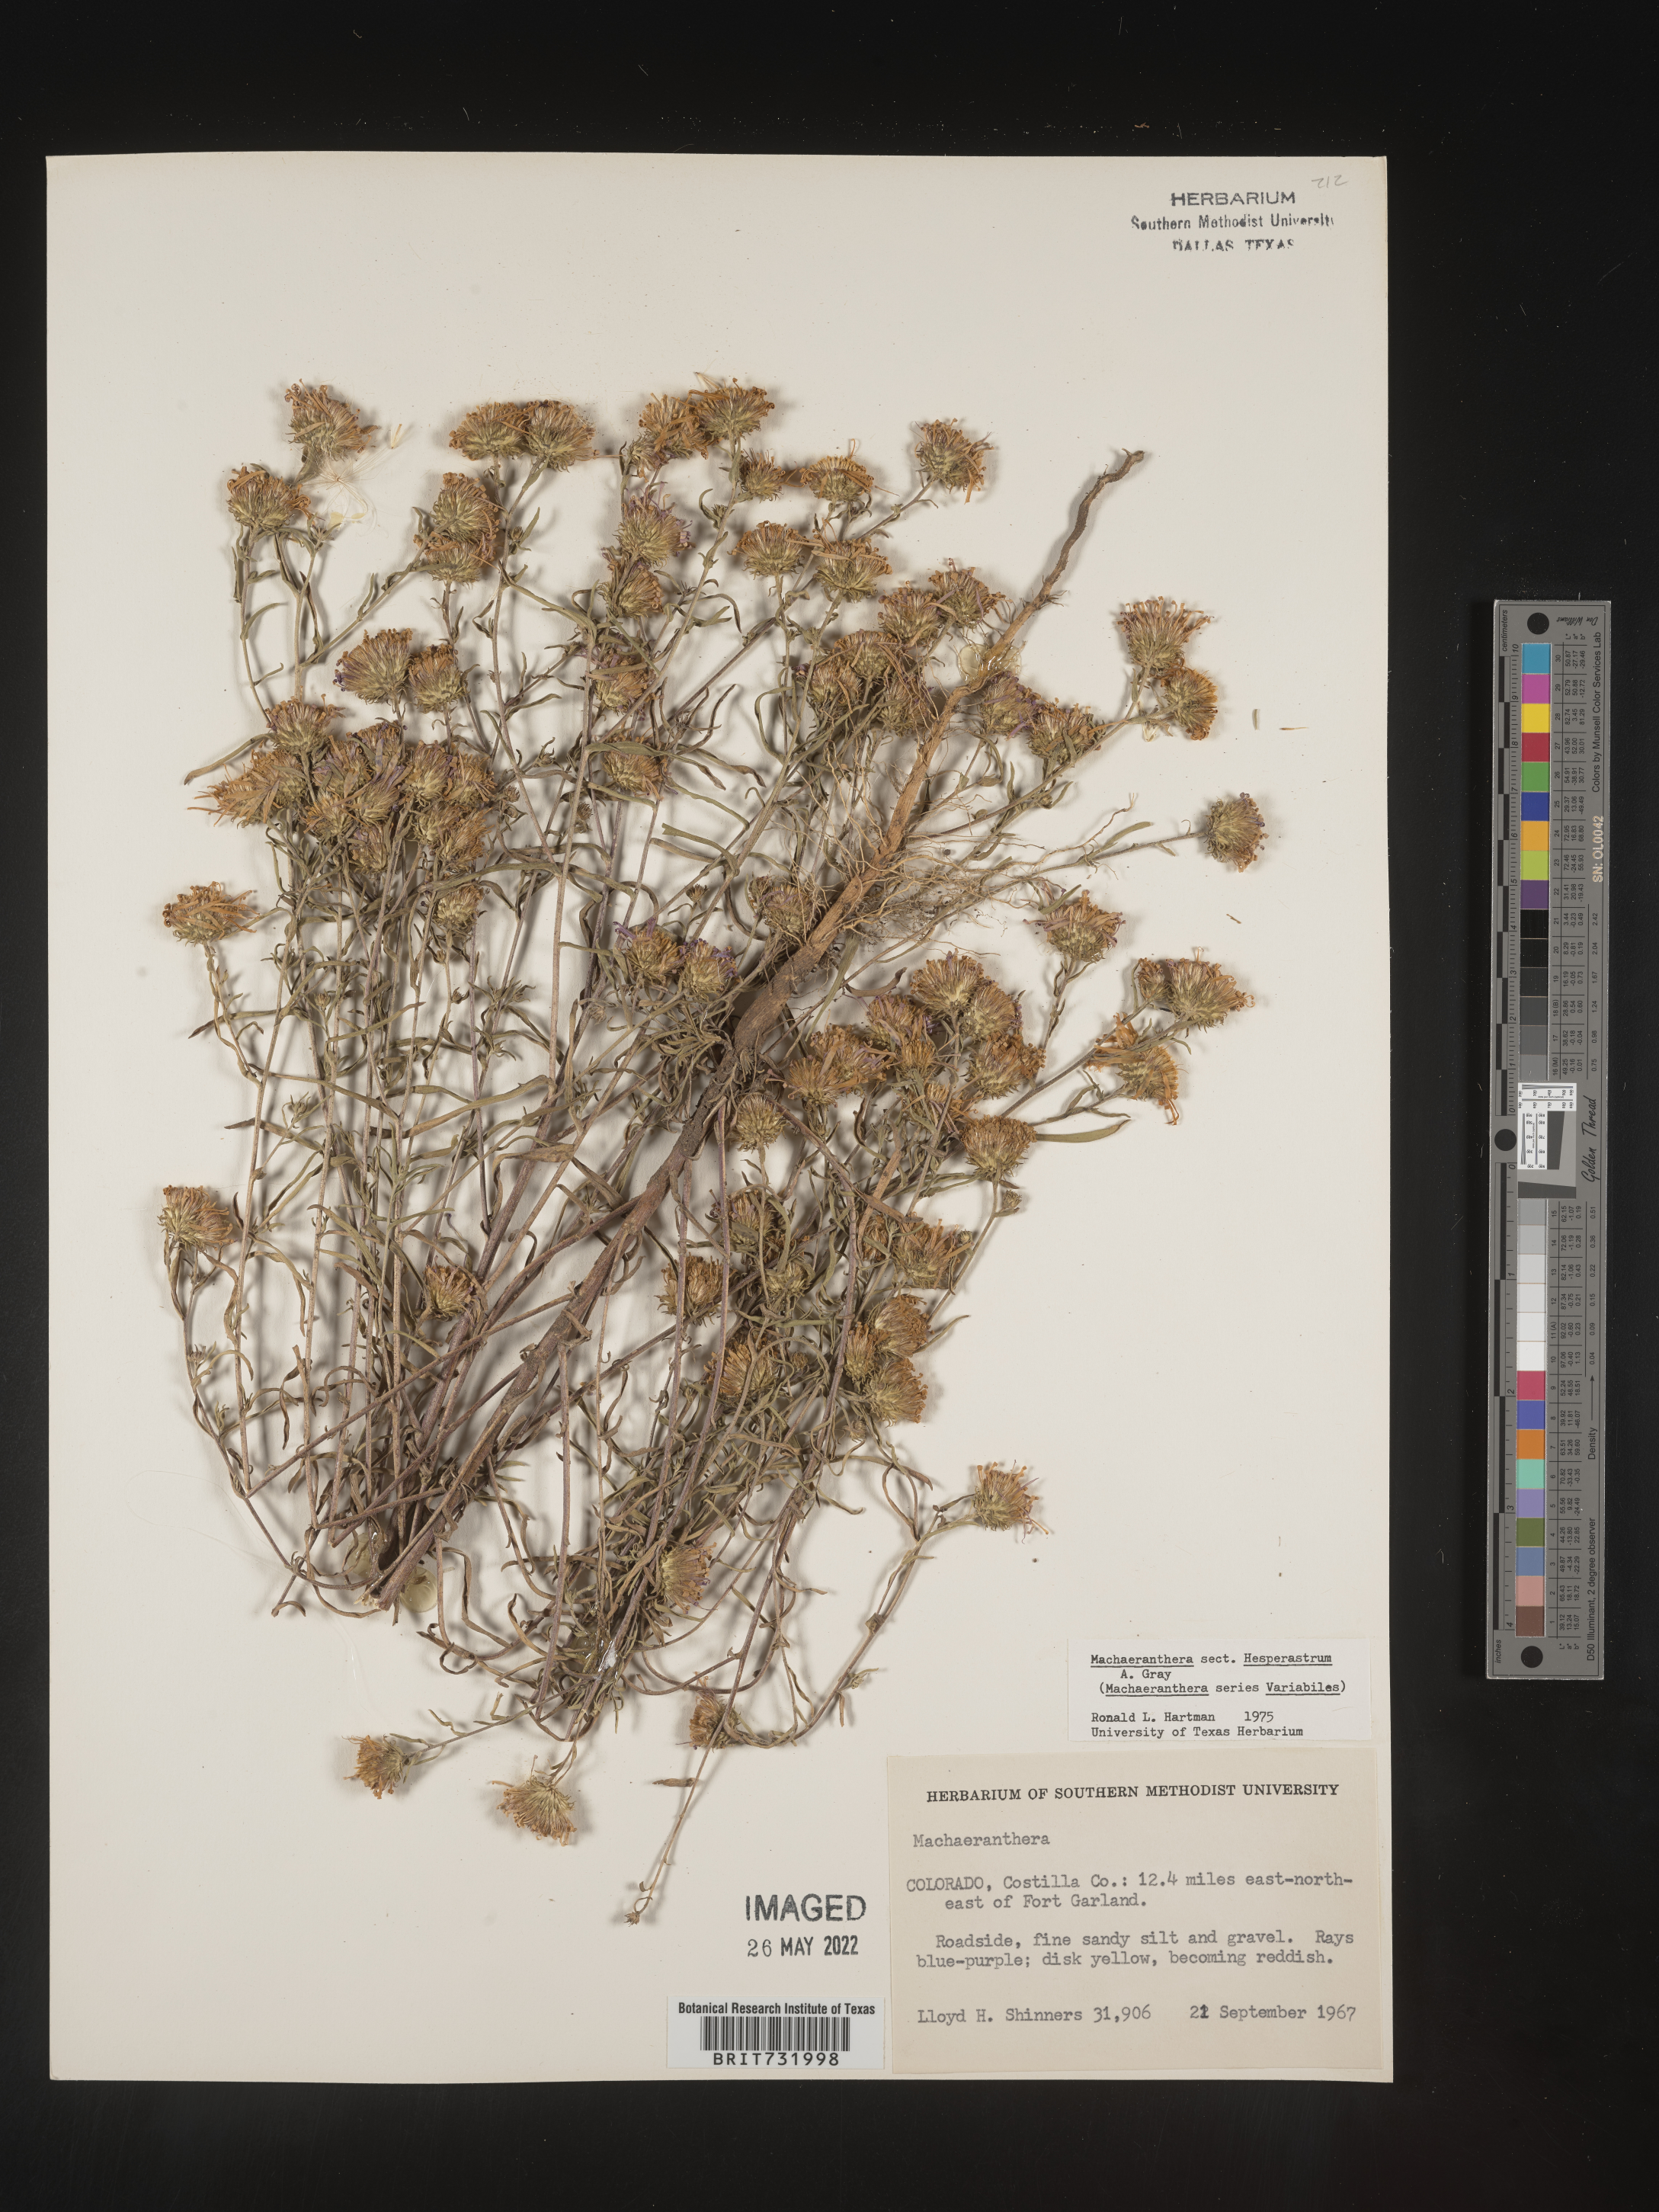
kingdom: Plantae
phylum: Tracheophyta
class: Magnoliopsida
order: Asterales
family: Asteraceae
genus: Machaeranthera
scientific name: Machaeranthera
